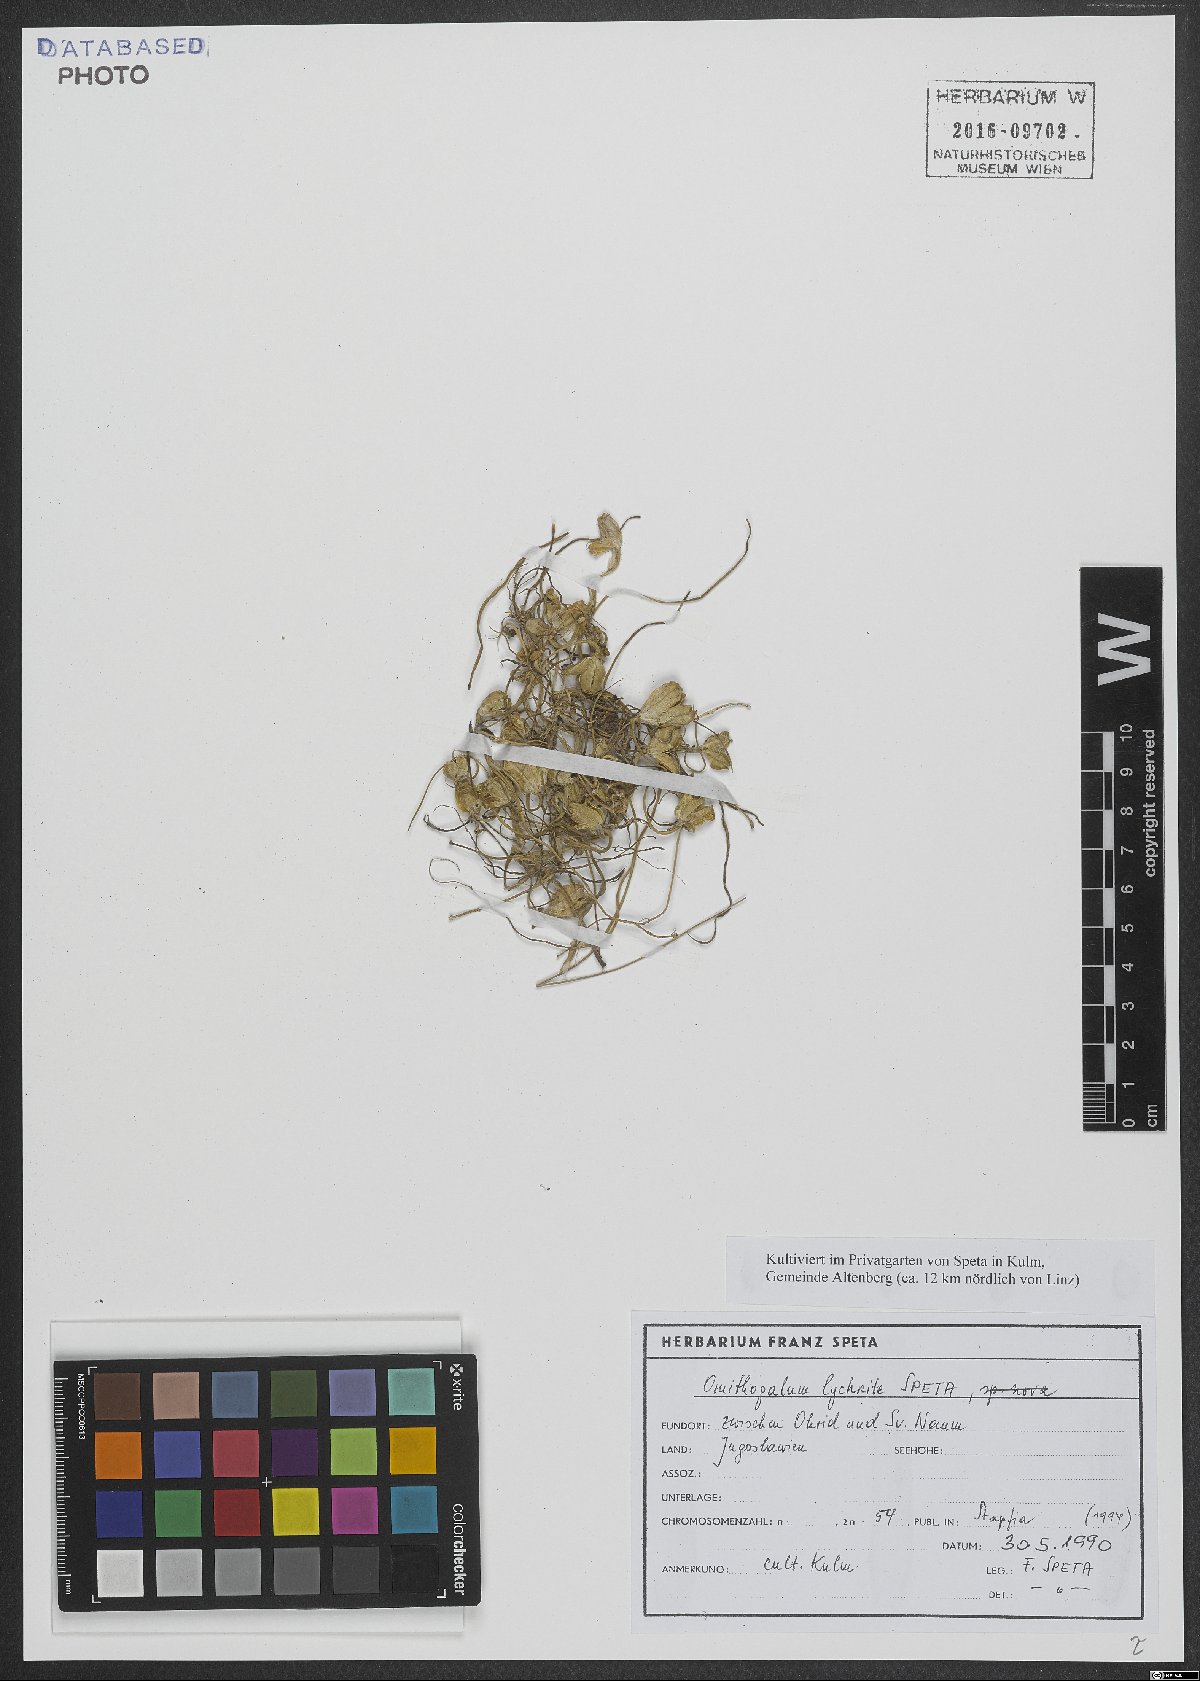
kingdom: Plantae
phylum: Tracheophyta
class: Liliopsida
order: Asparagales
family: Asparagaceae
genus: Ornithogalum
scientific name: Ornithogalum lychnite
